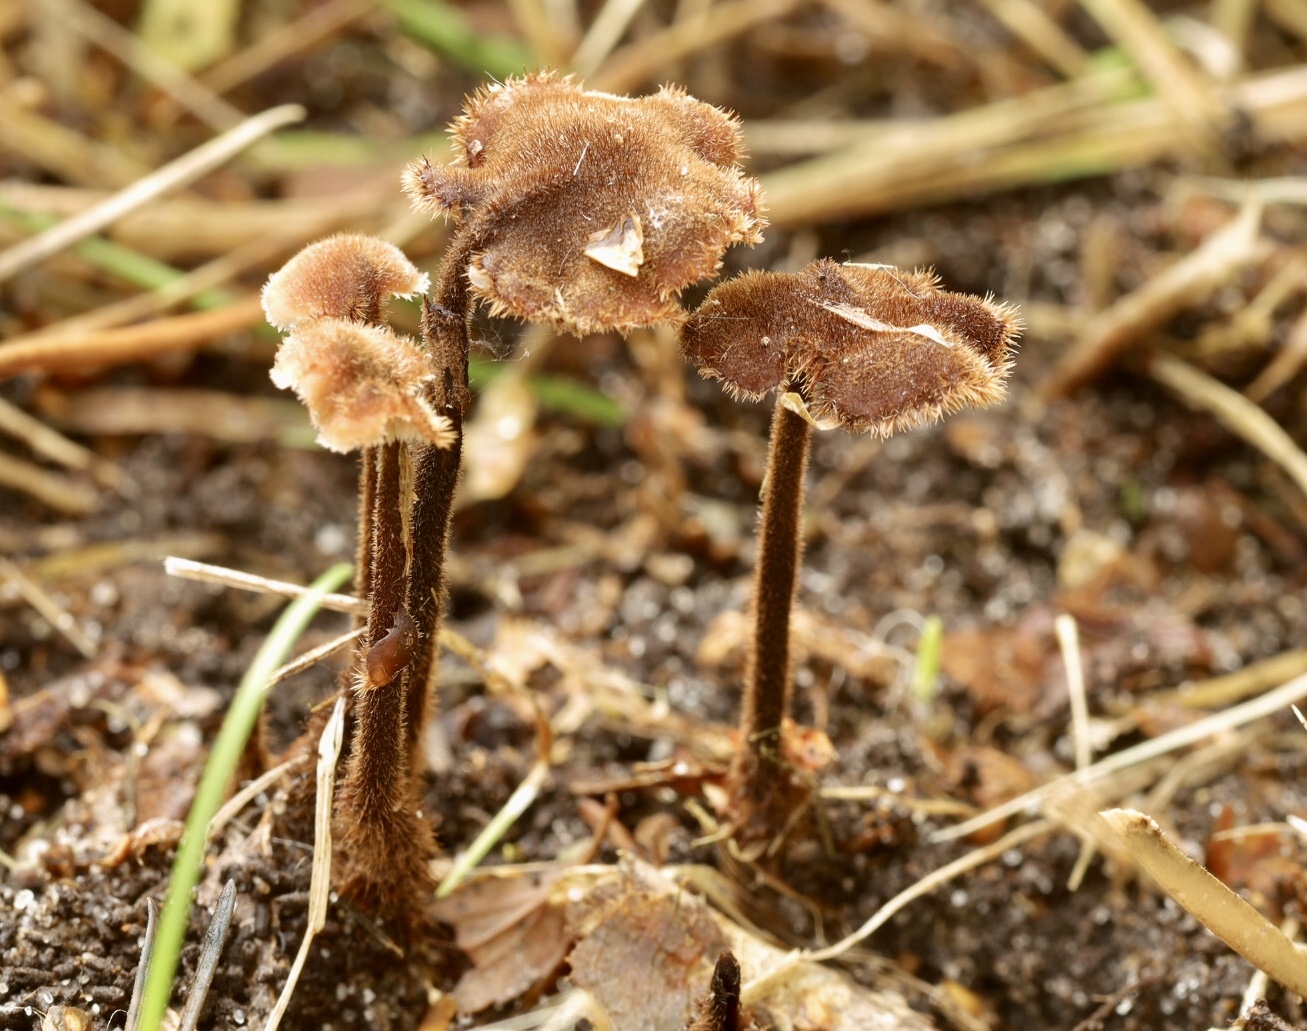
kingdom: Fungi
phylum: Basidiomycota
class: Agaricomycetes
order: Russulales
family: Auriscalpiaceae
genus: Auriscalpium
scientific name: Auriscalpium vulgare
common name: koglepigsvamp
